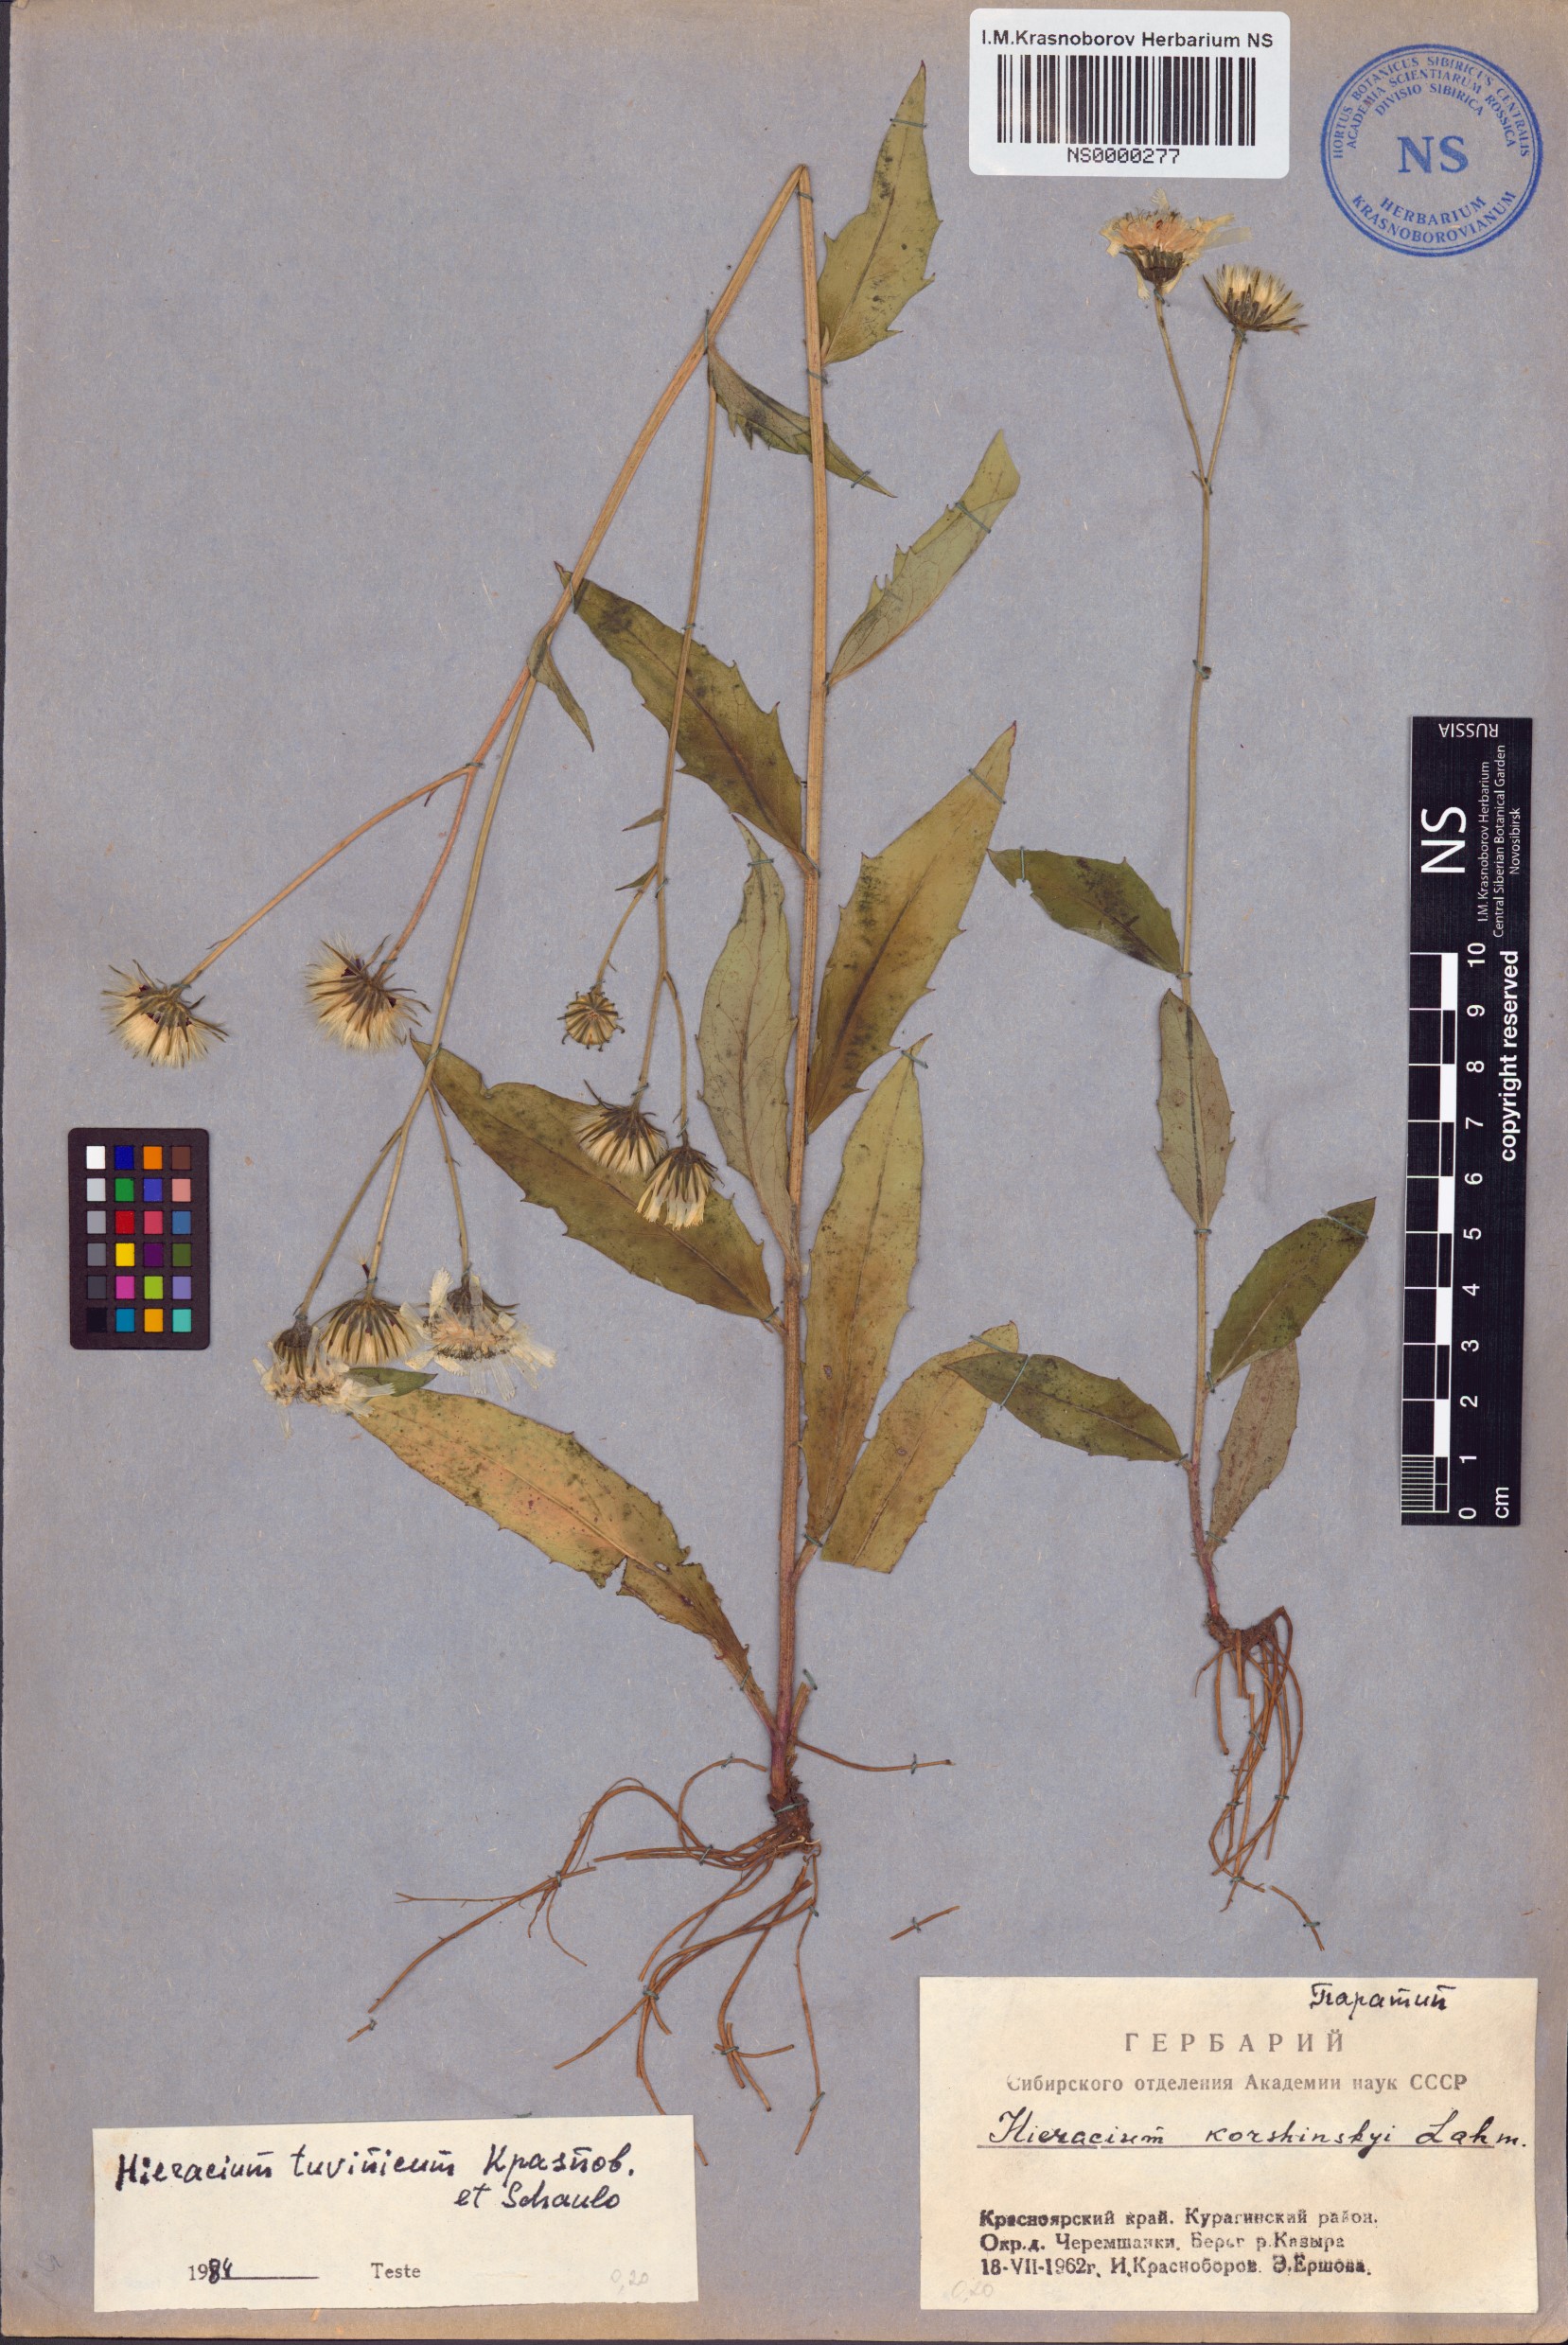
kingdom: Plantae
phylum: Tracheophyta
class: Magnoliopsida
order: Asterales
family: Asteraceae
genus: Hieracium
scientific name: Hieracium tuvinicum
